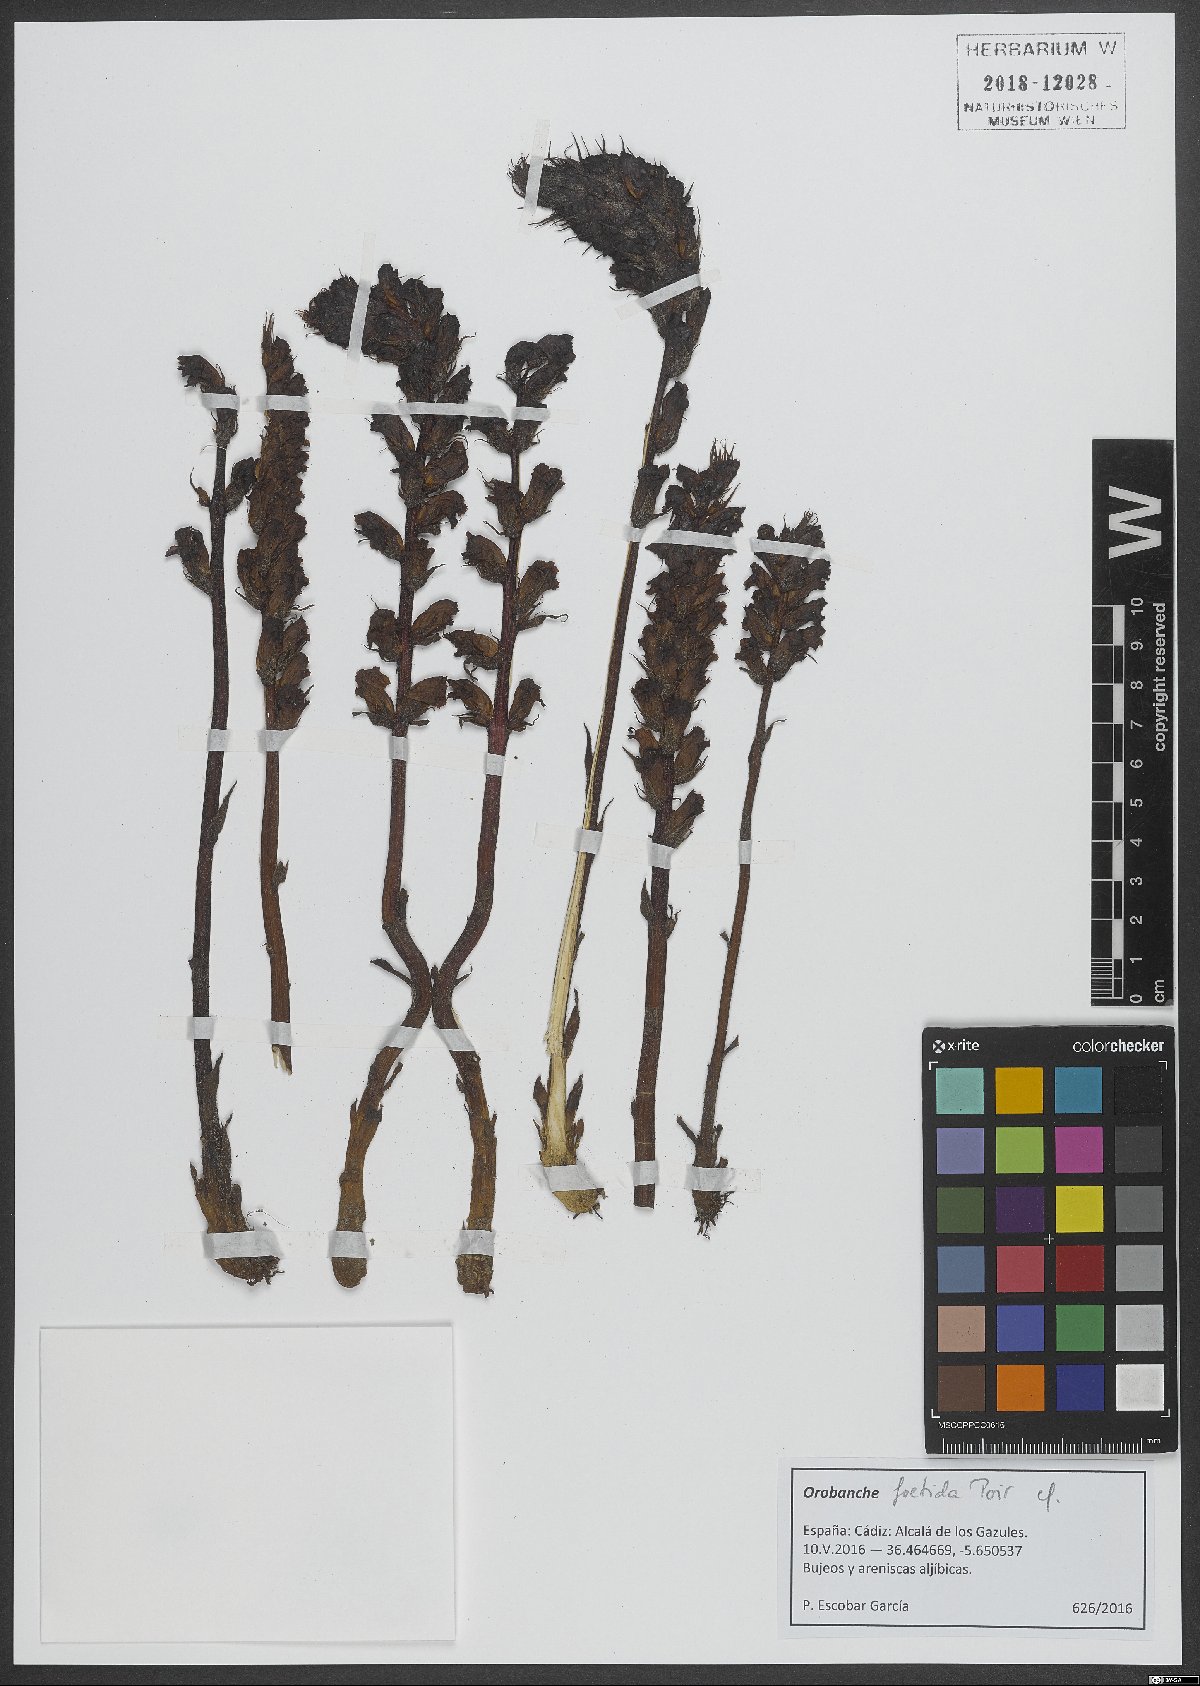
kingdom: Plantae
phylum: Tracheophyta
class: Magnoliopsida
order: Lamiales
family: Orobanchaceae
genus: Orobanche
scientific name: Orobanche foetida
